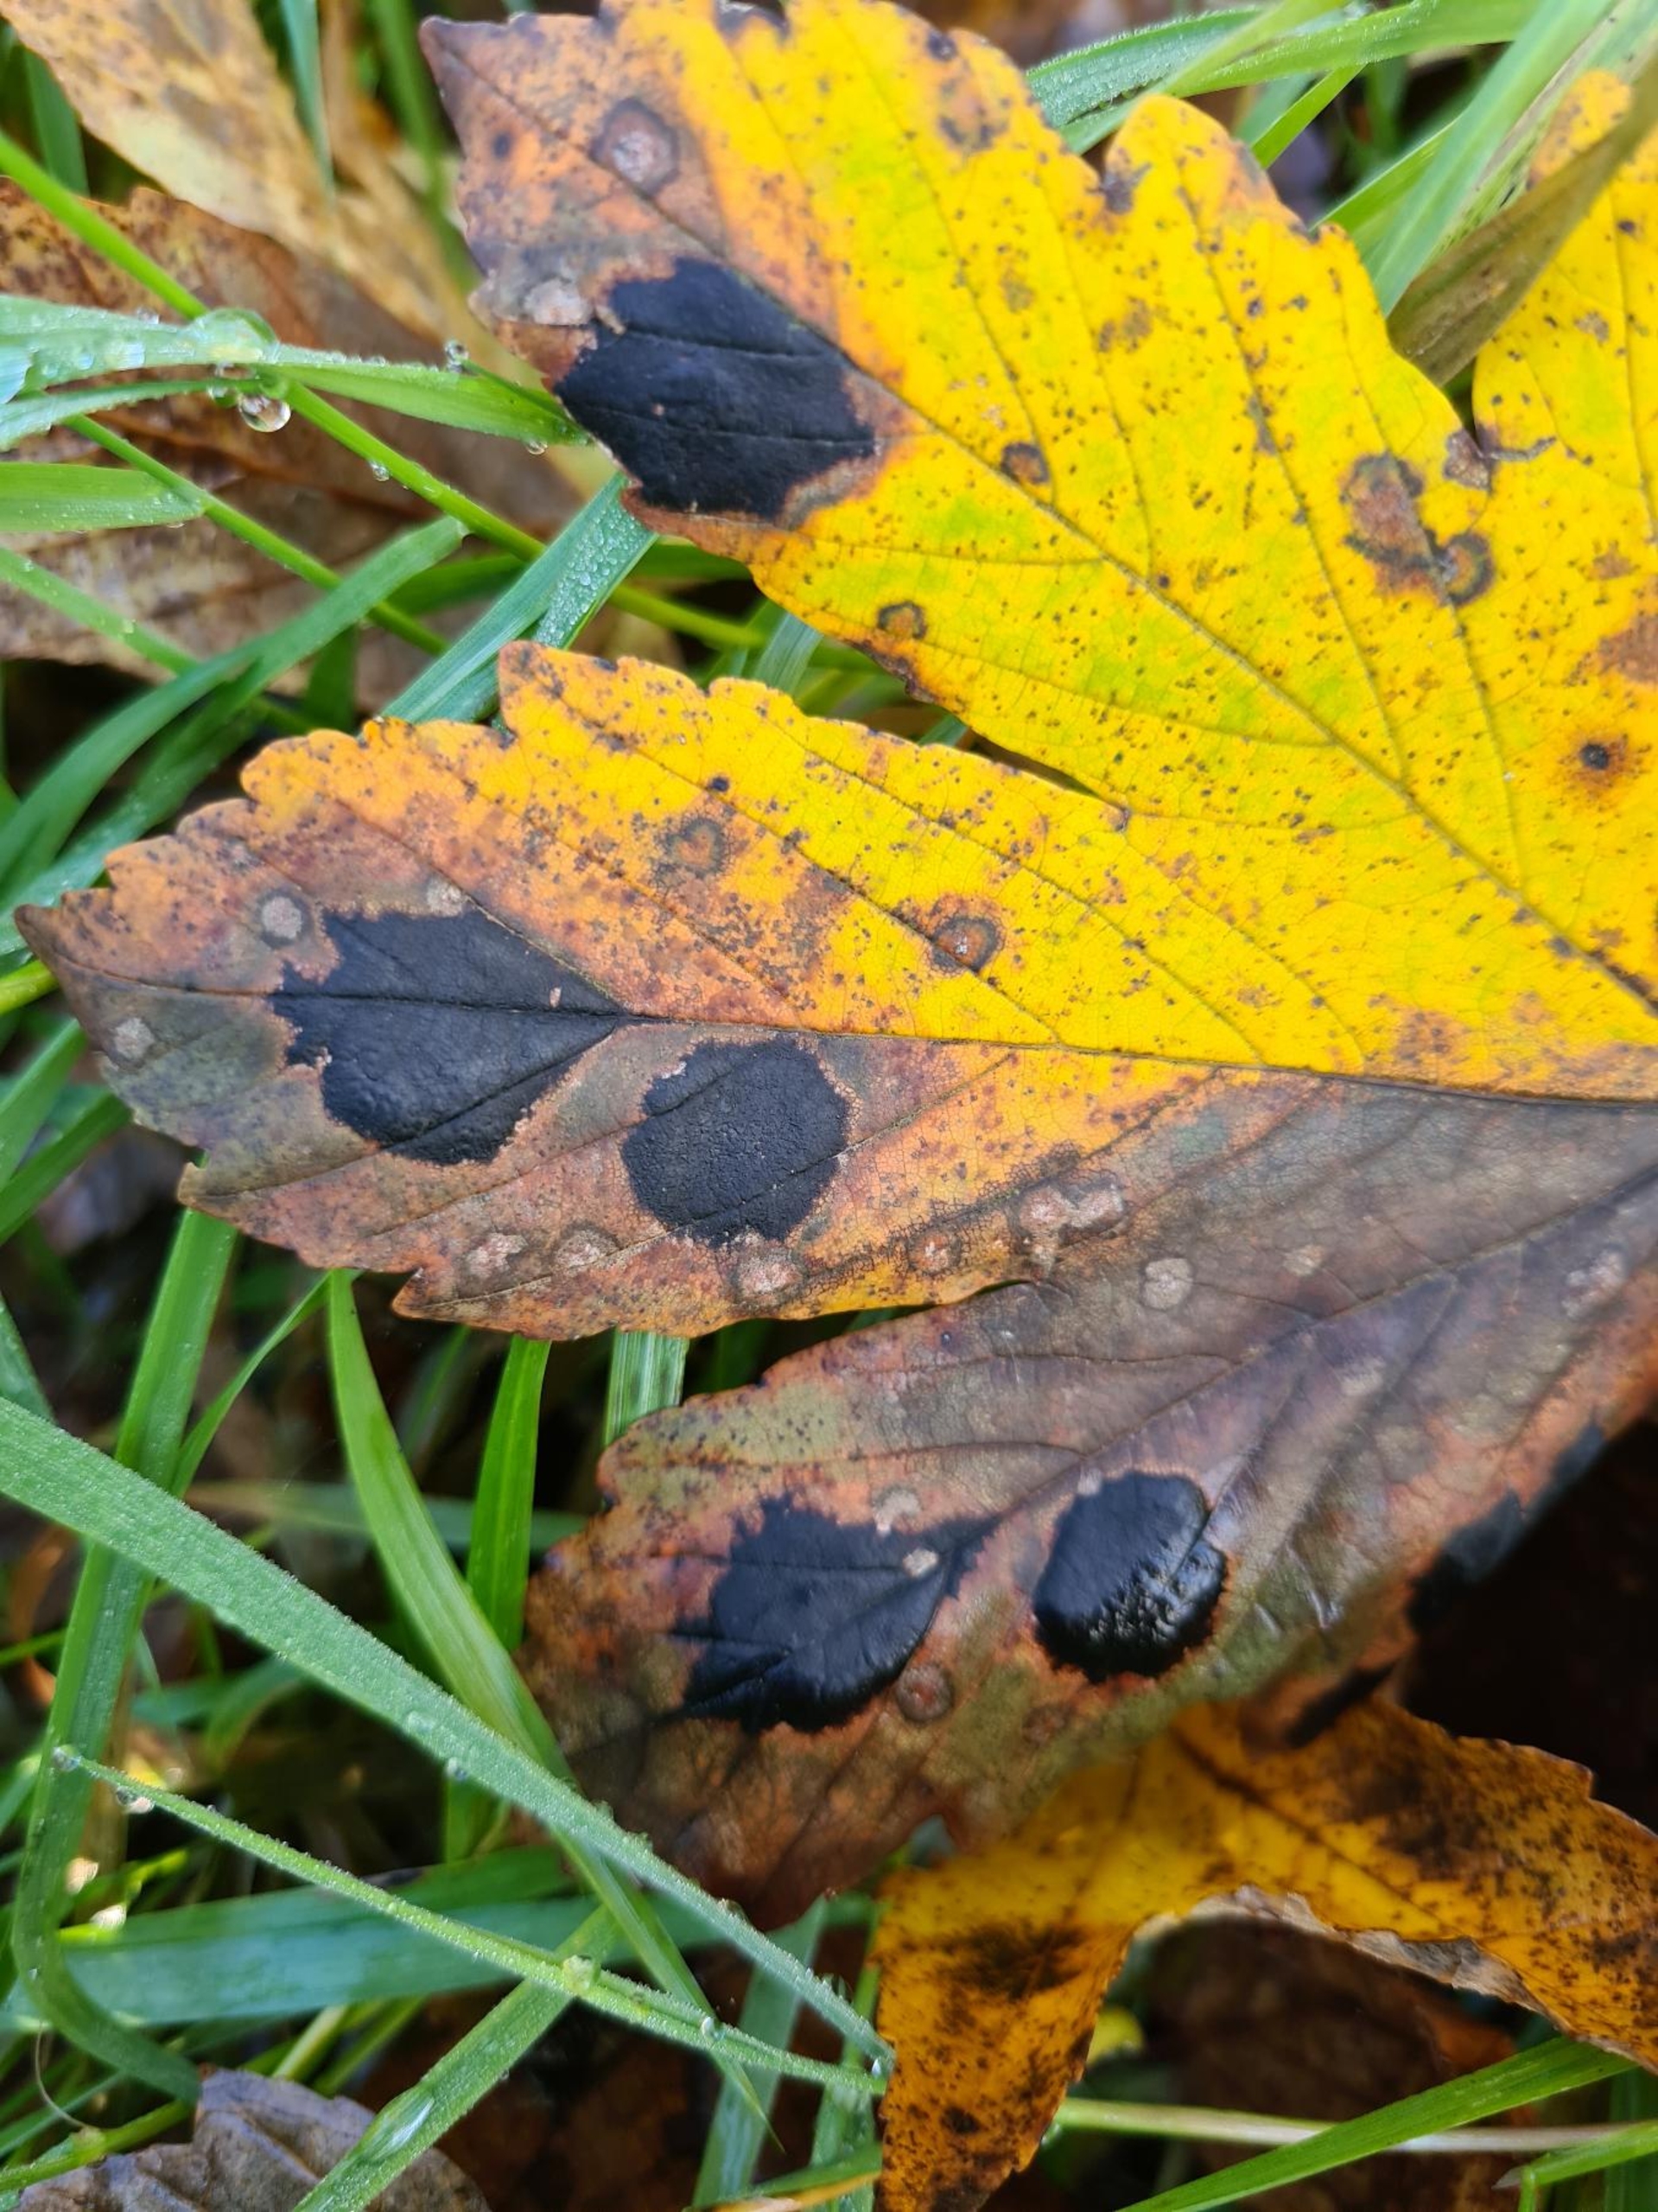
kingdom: Fungi
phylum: Ascomycota
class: Leotiomycetes
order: Rhytismatales
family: Rhytismataceae
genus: Rhytisma
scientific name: Rhytisma acerinum
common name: Ahorn-rynkeplet
